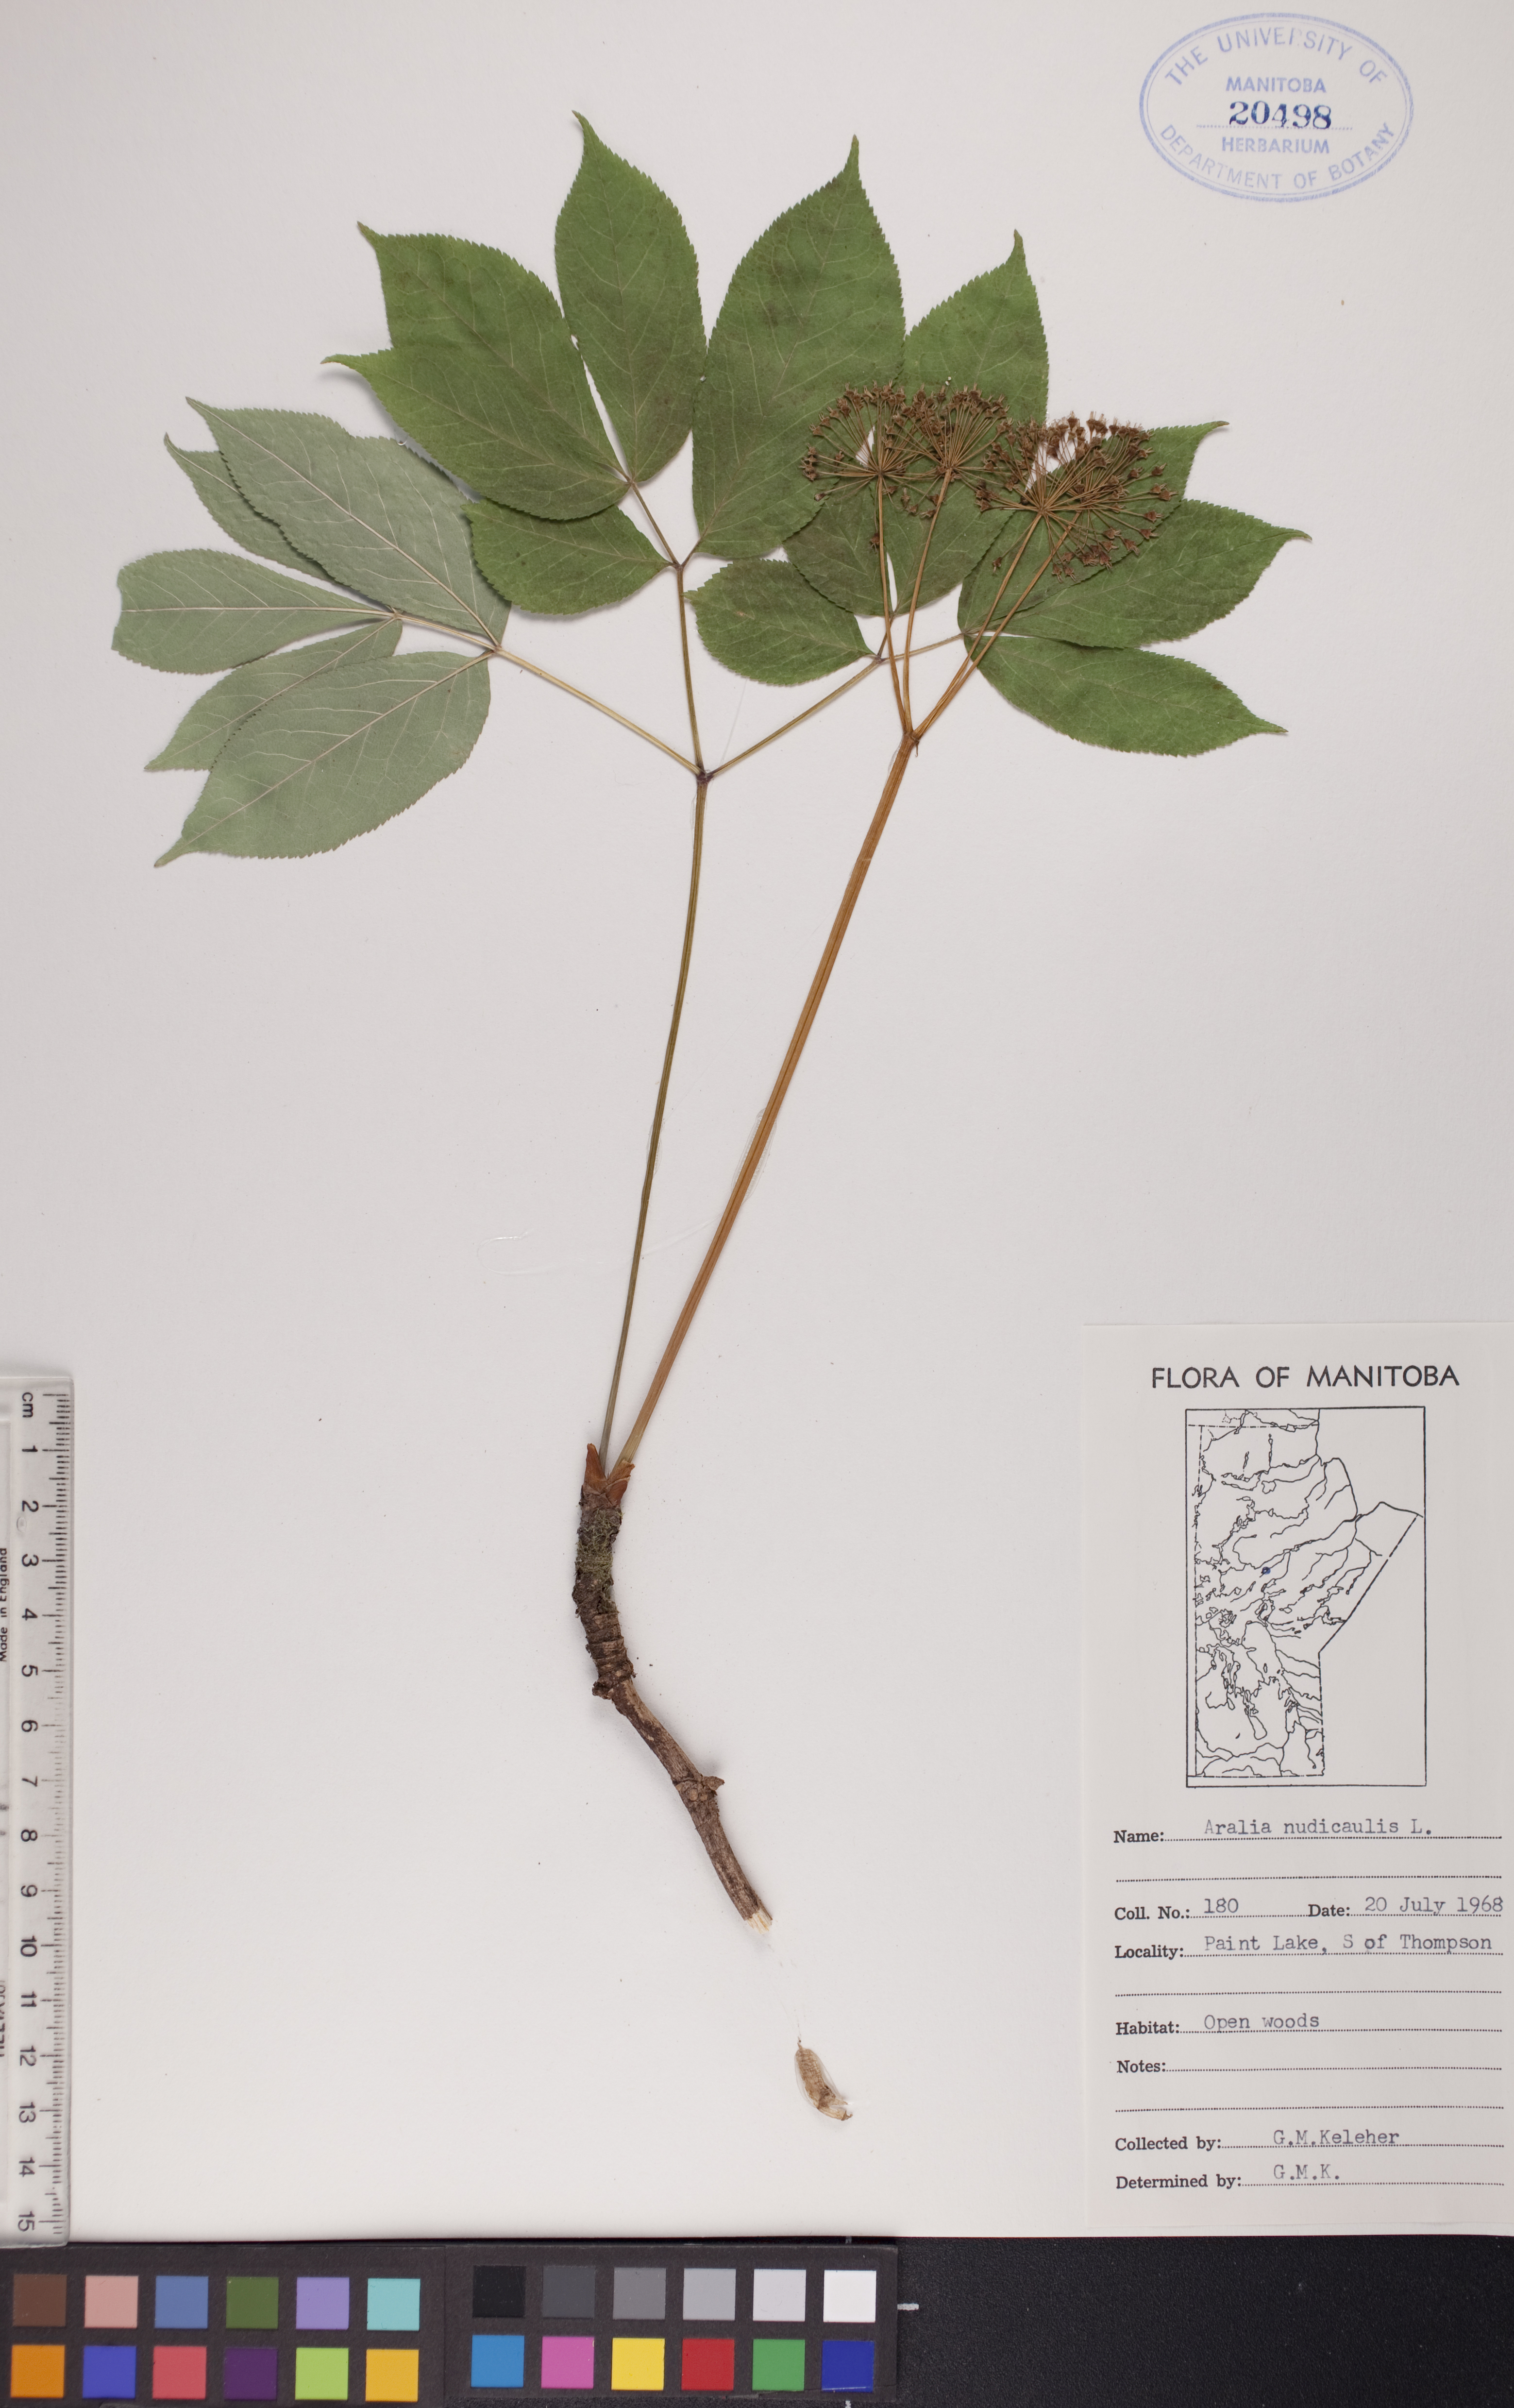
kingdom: Plantae
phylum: Tracheophyta
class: Magnoliopsida
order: Apiales
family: Araliaceae
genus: Aralia
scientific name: Aralia nudicaulis
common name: Wild sarsaparilla
